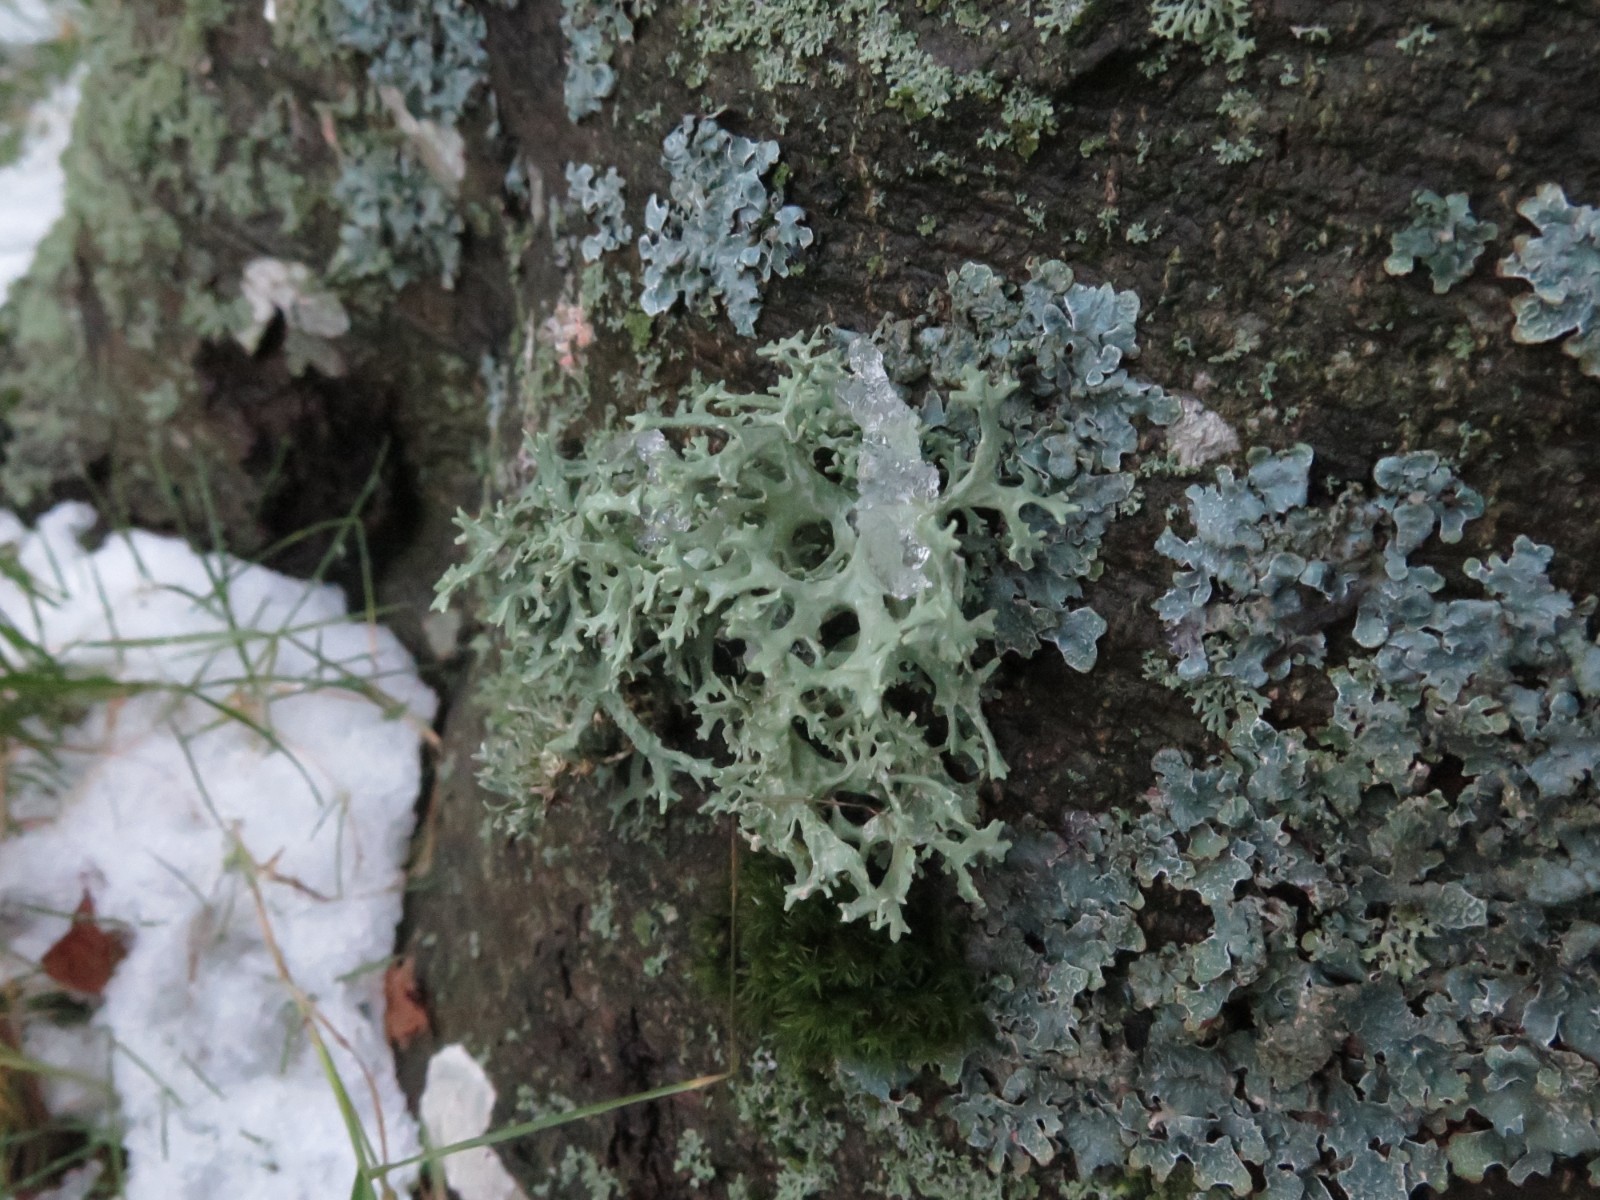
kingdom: Fungi
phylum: Ascomycota
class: Lecanoromycetes
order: Lecanorales
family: Parmeliaceae
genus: Evernia
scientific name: Evernia prunastri
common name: almindelig slåenlav
